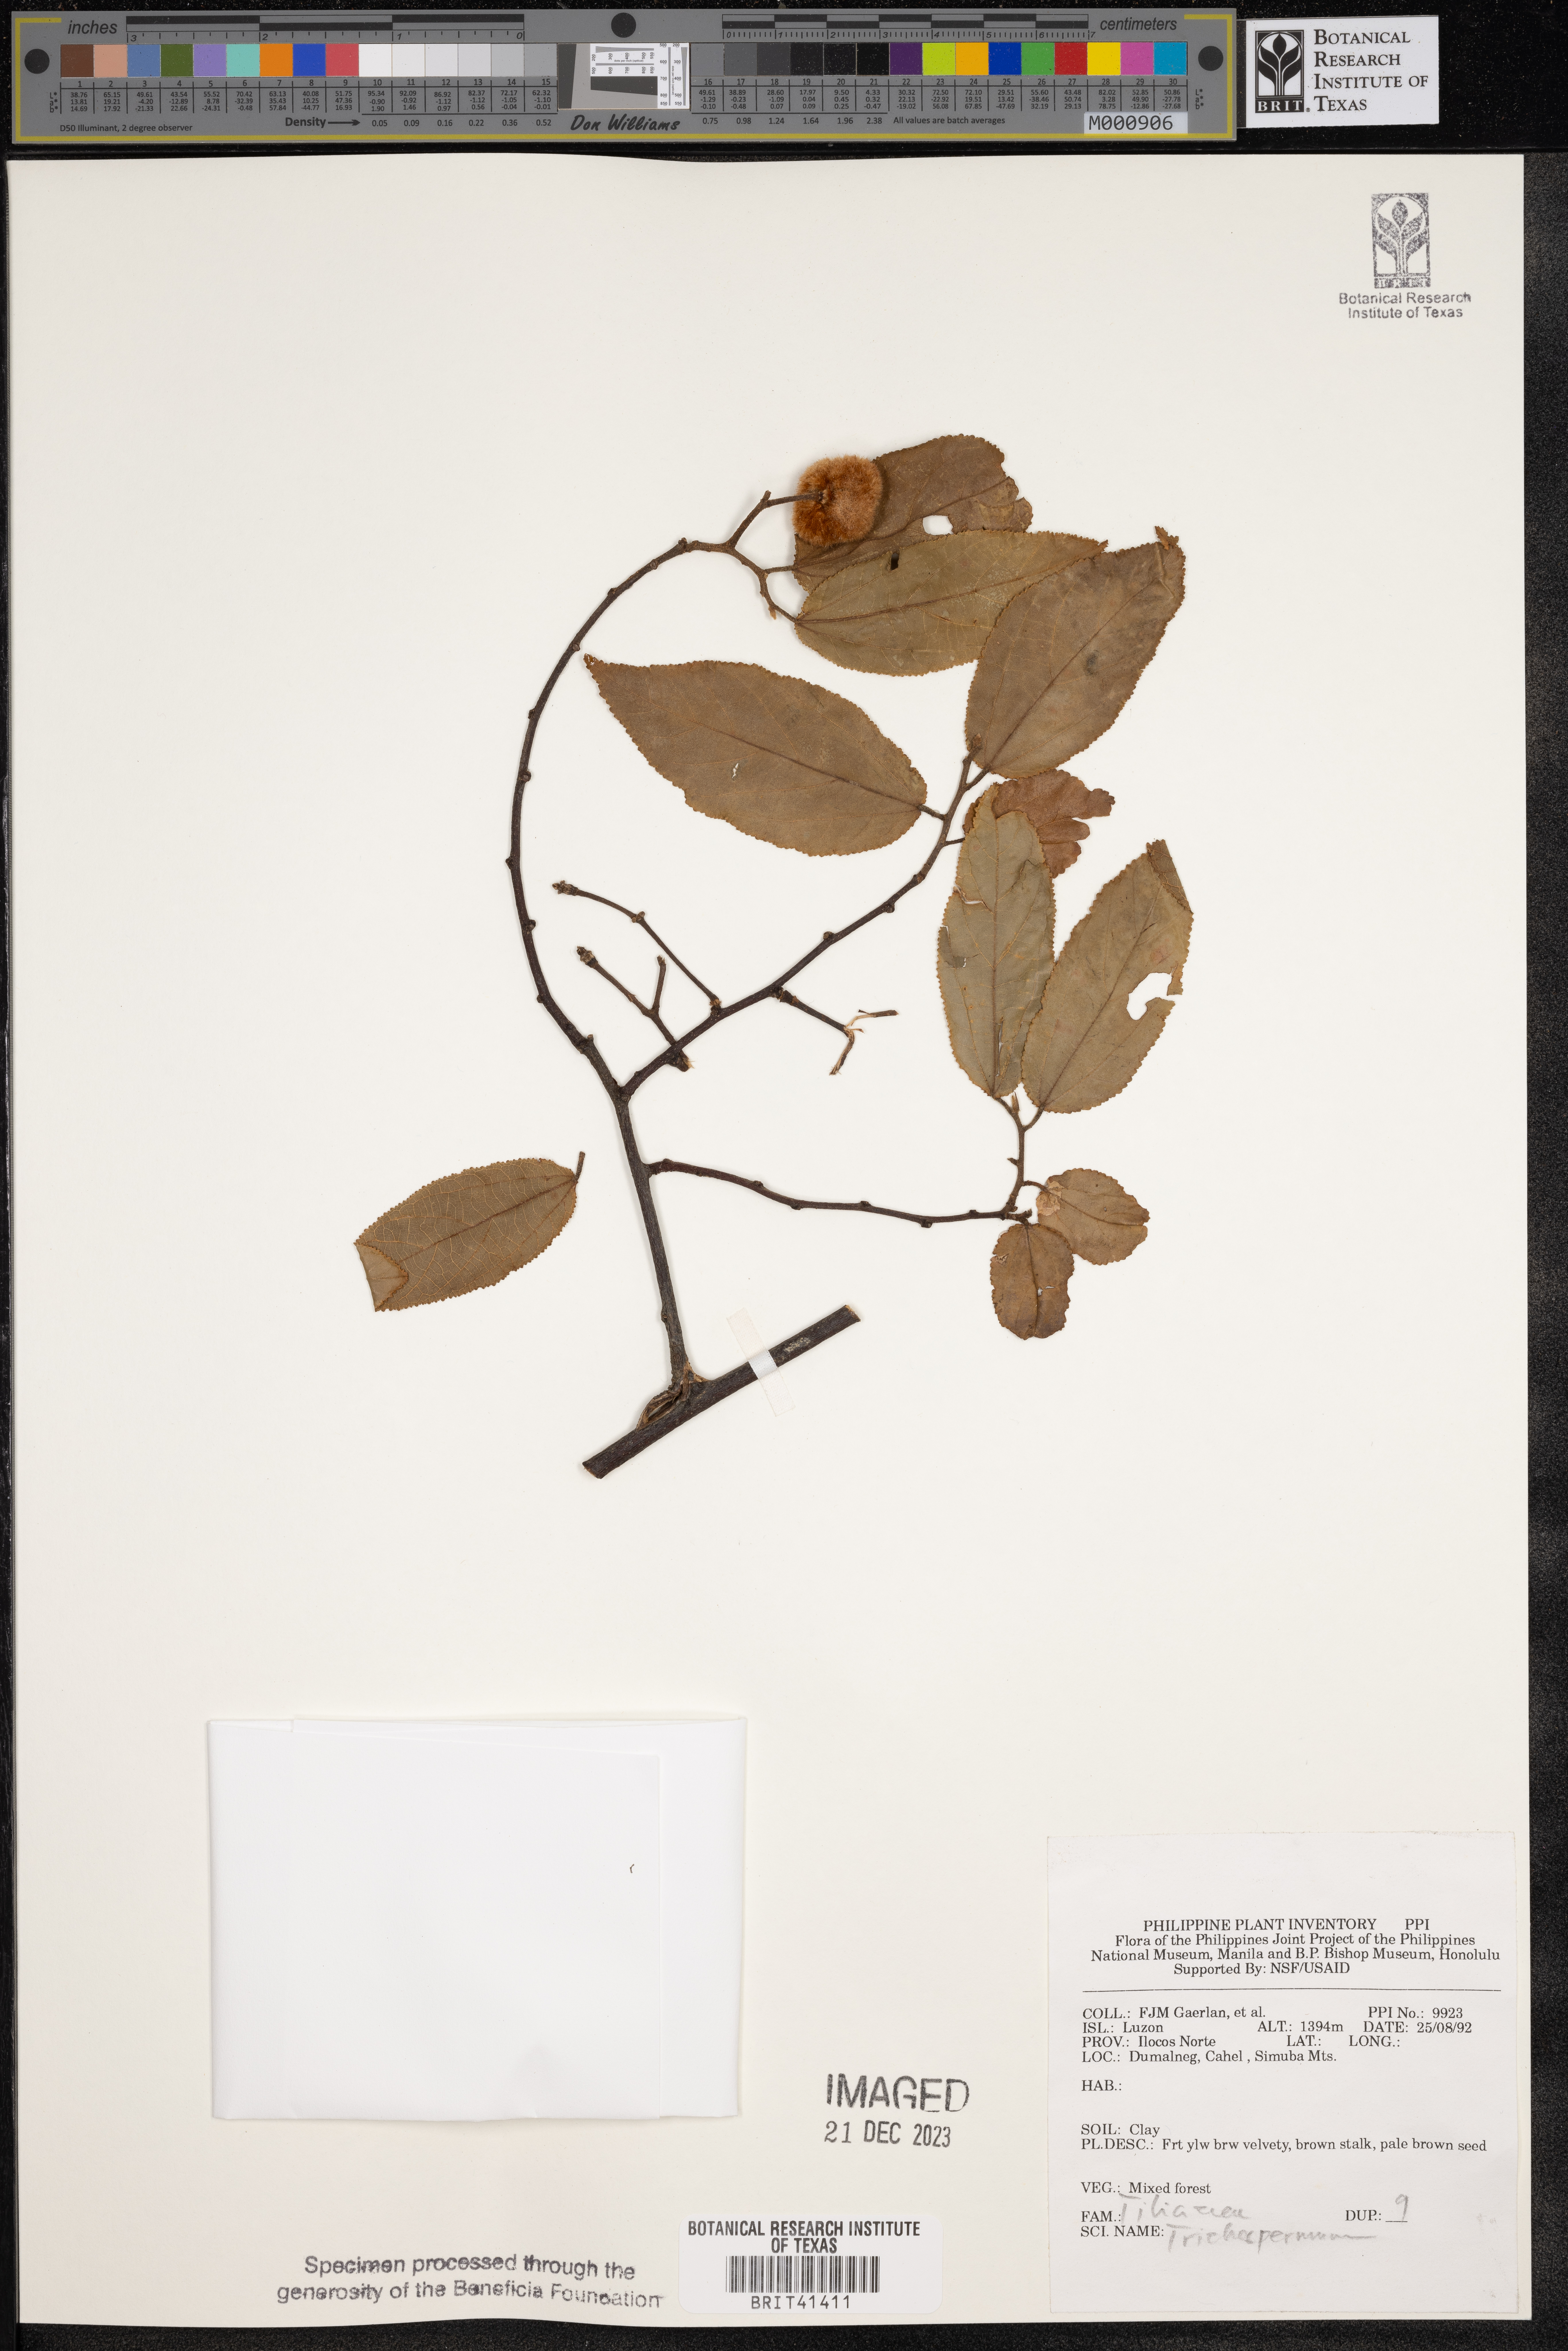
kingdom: Plantae
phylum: Tracheophyta
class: Magnoliopsida
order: Malvales
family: Malvaceae
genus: Trichospermum
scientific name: Trichospermum
